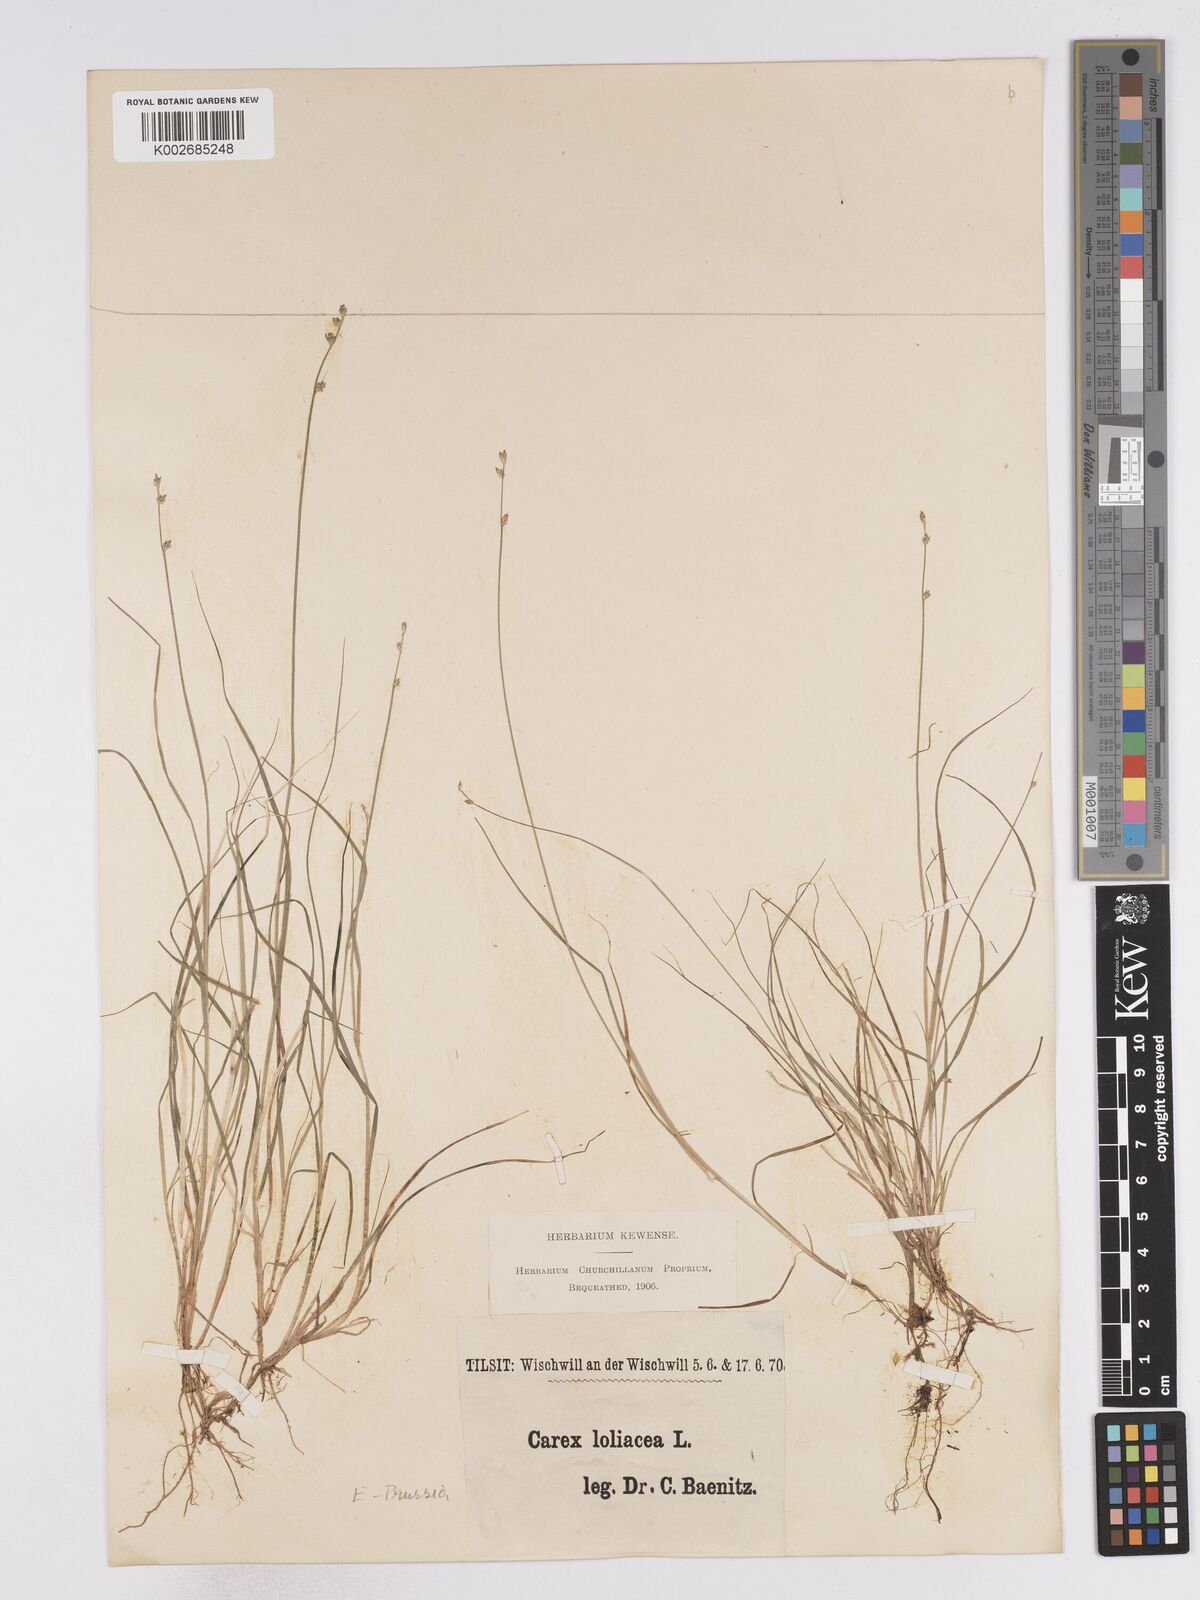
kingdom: Plantae
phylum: Tracheophyta
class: Liliopsida
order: Poales
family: Cyperaceae
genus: Carex
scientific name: Carex loliacea
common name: Ryegrass sedge
